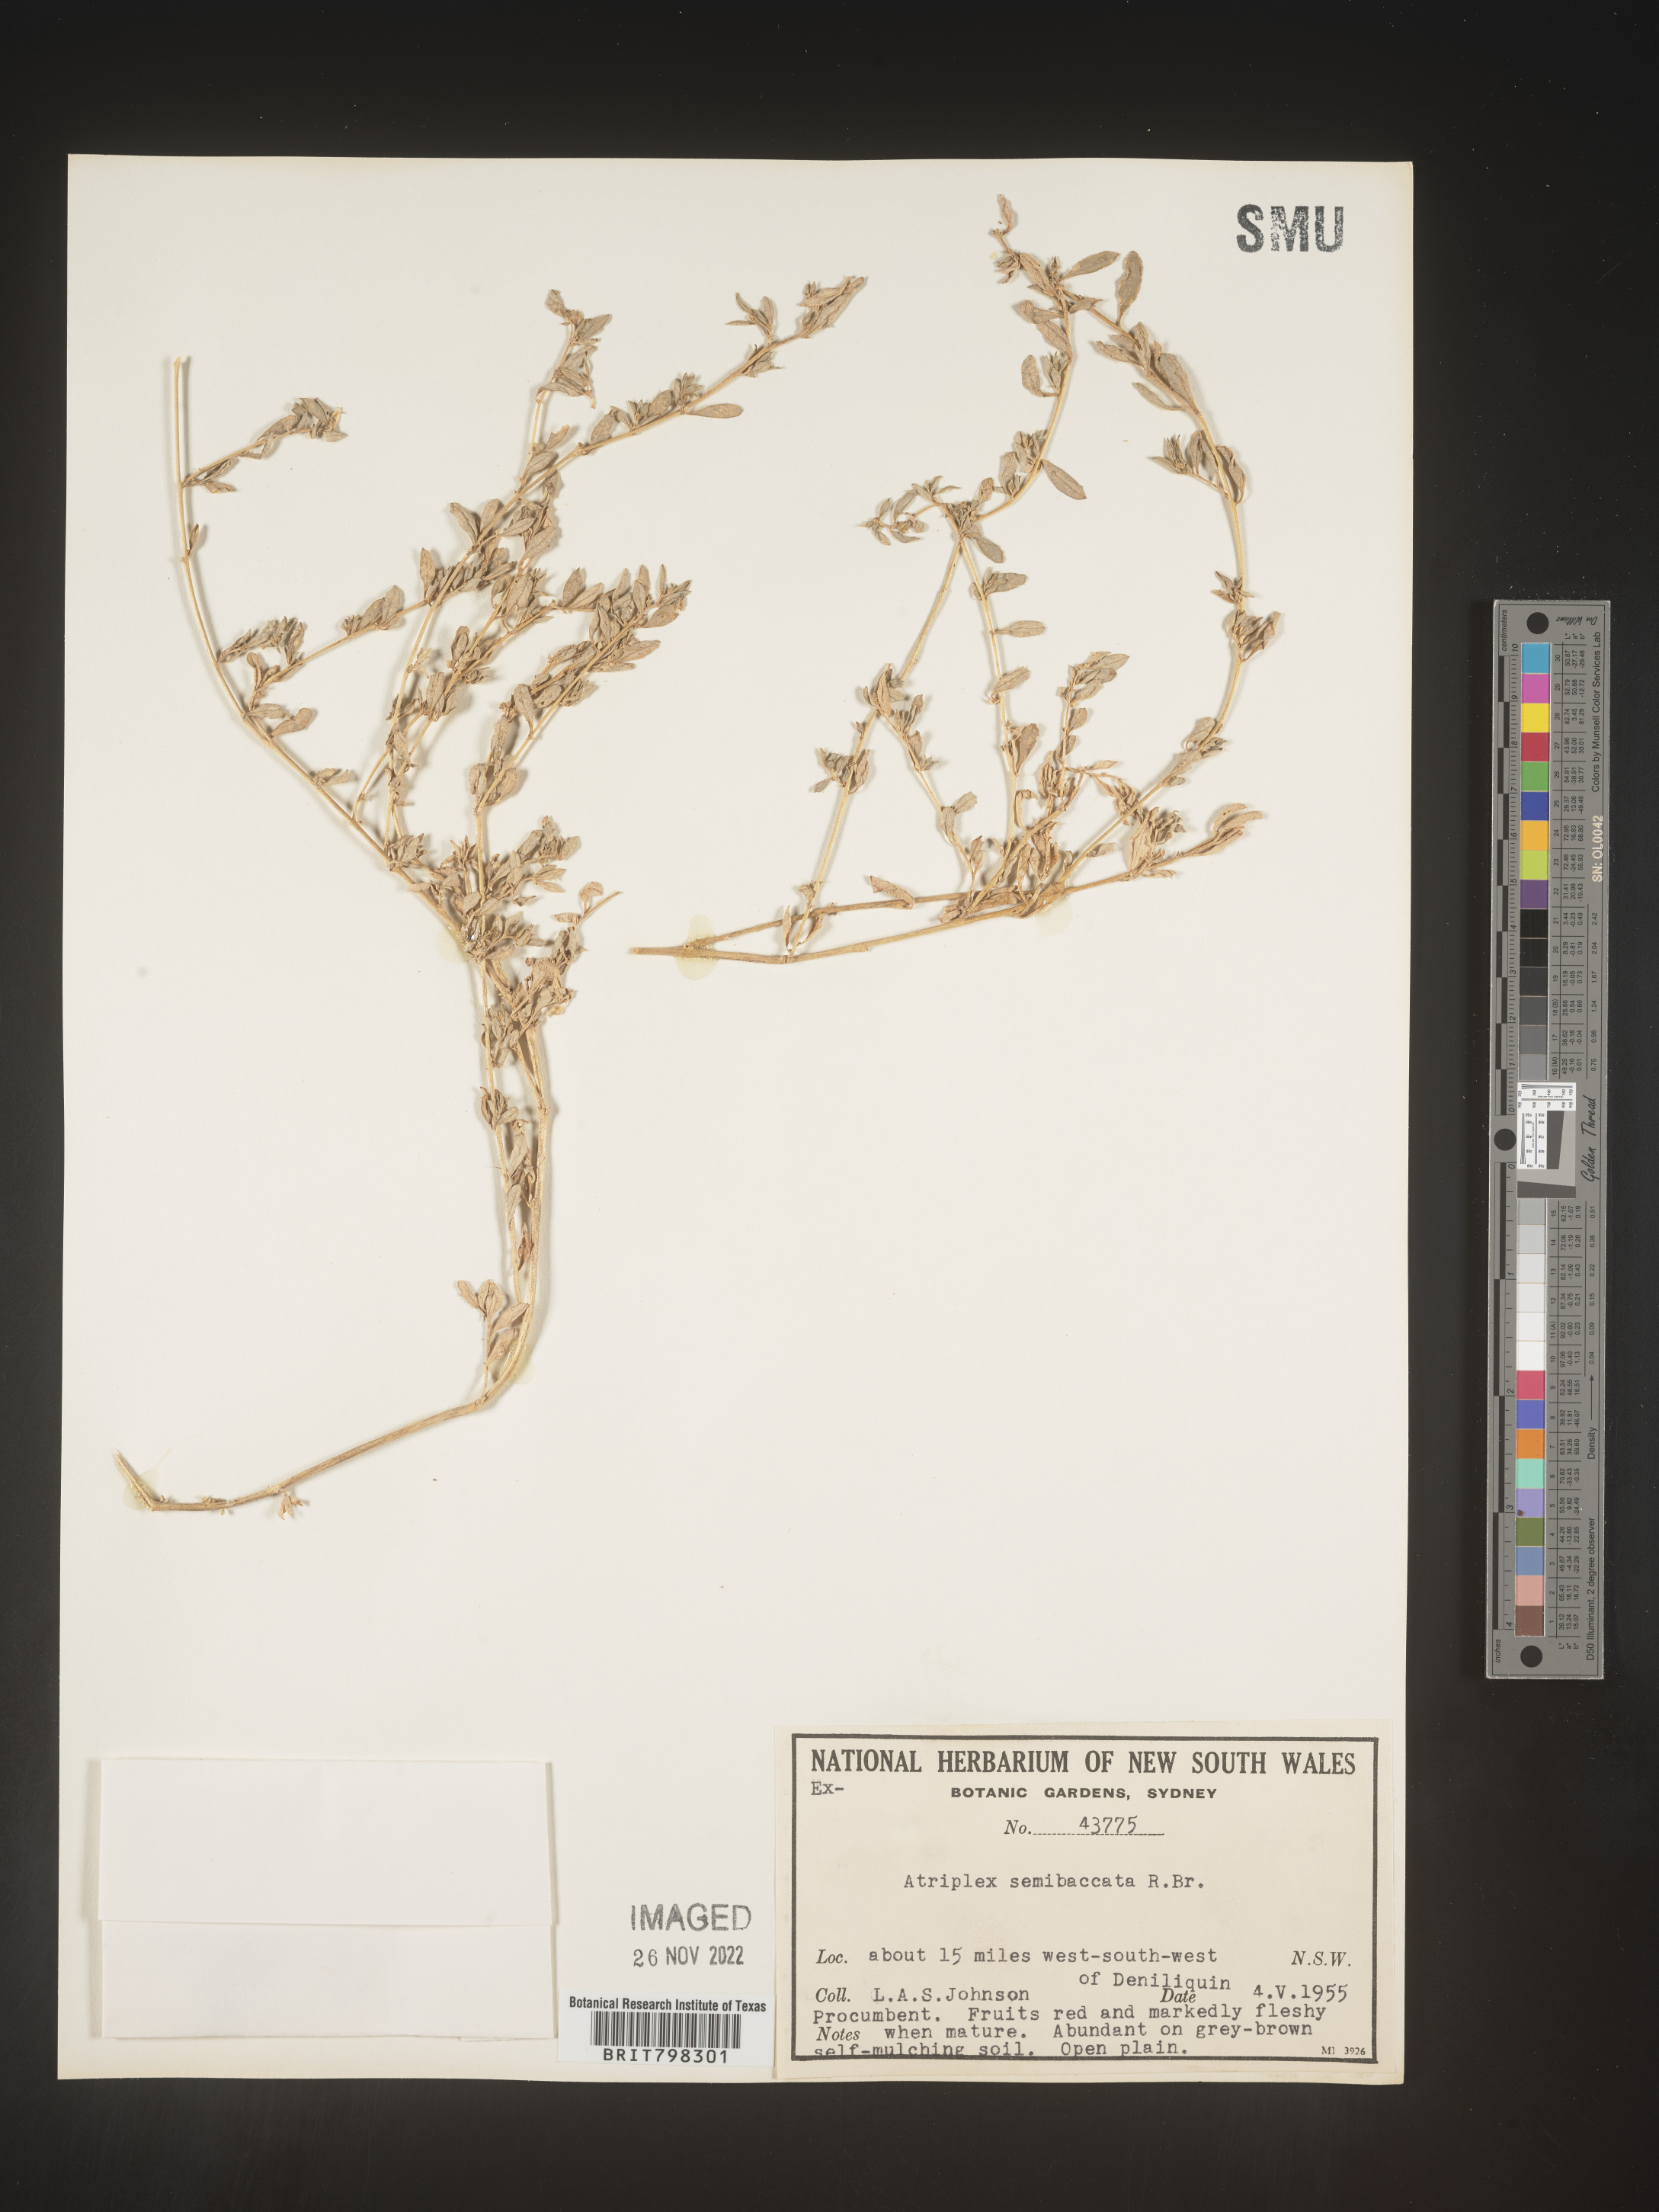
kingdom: Plantae
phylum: Tracheophyta
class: Magnoliopsida
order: Caryophyllales
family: Amaranthaceae
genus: Atriplex
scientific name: Atriplex
